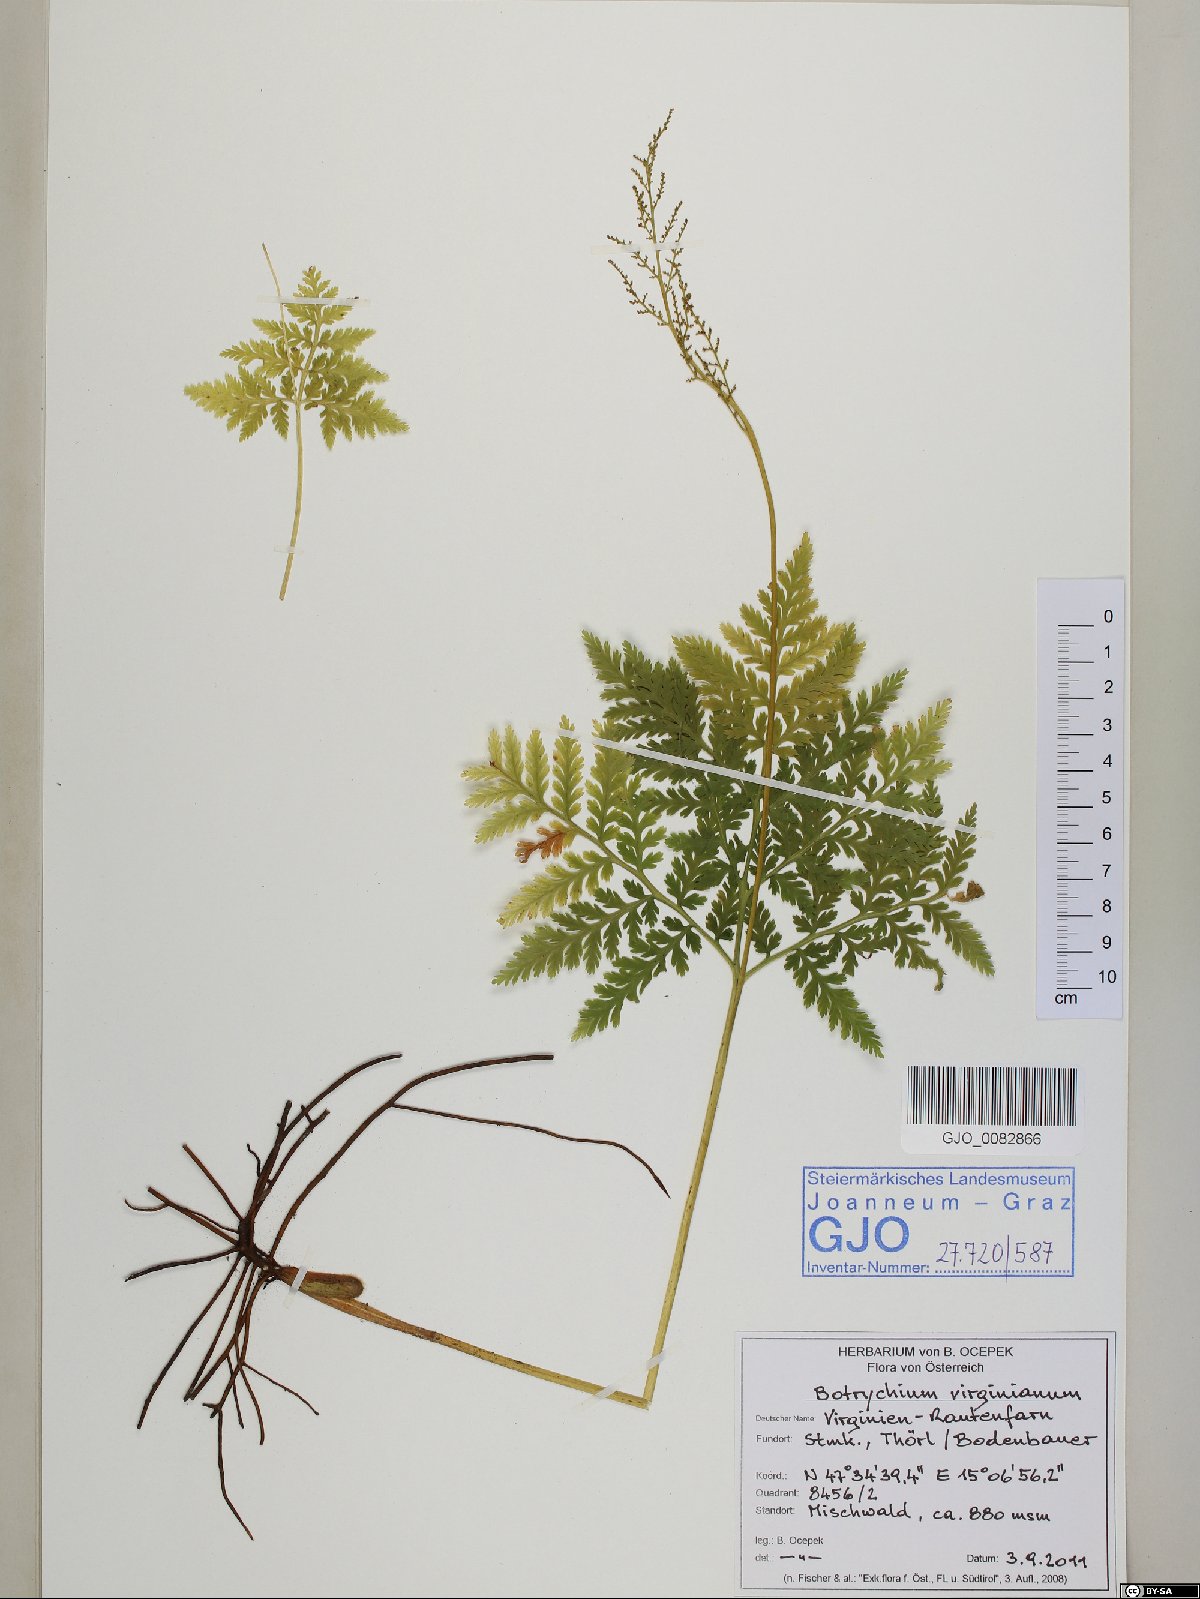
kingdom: Plantae
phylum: Tracheophyta
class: Polypodiopsida
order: Ophioglossales
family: Ophioglossaceae
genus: Botrypus
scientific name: Botrypus virginianus
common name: Common grapefern
